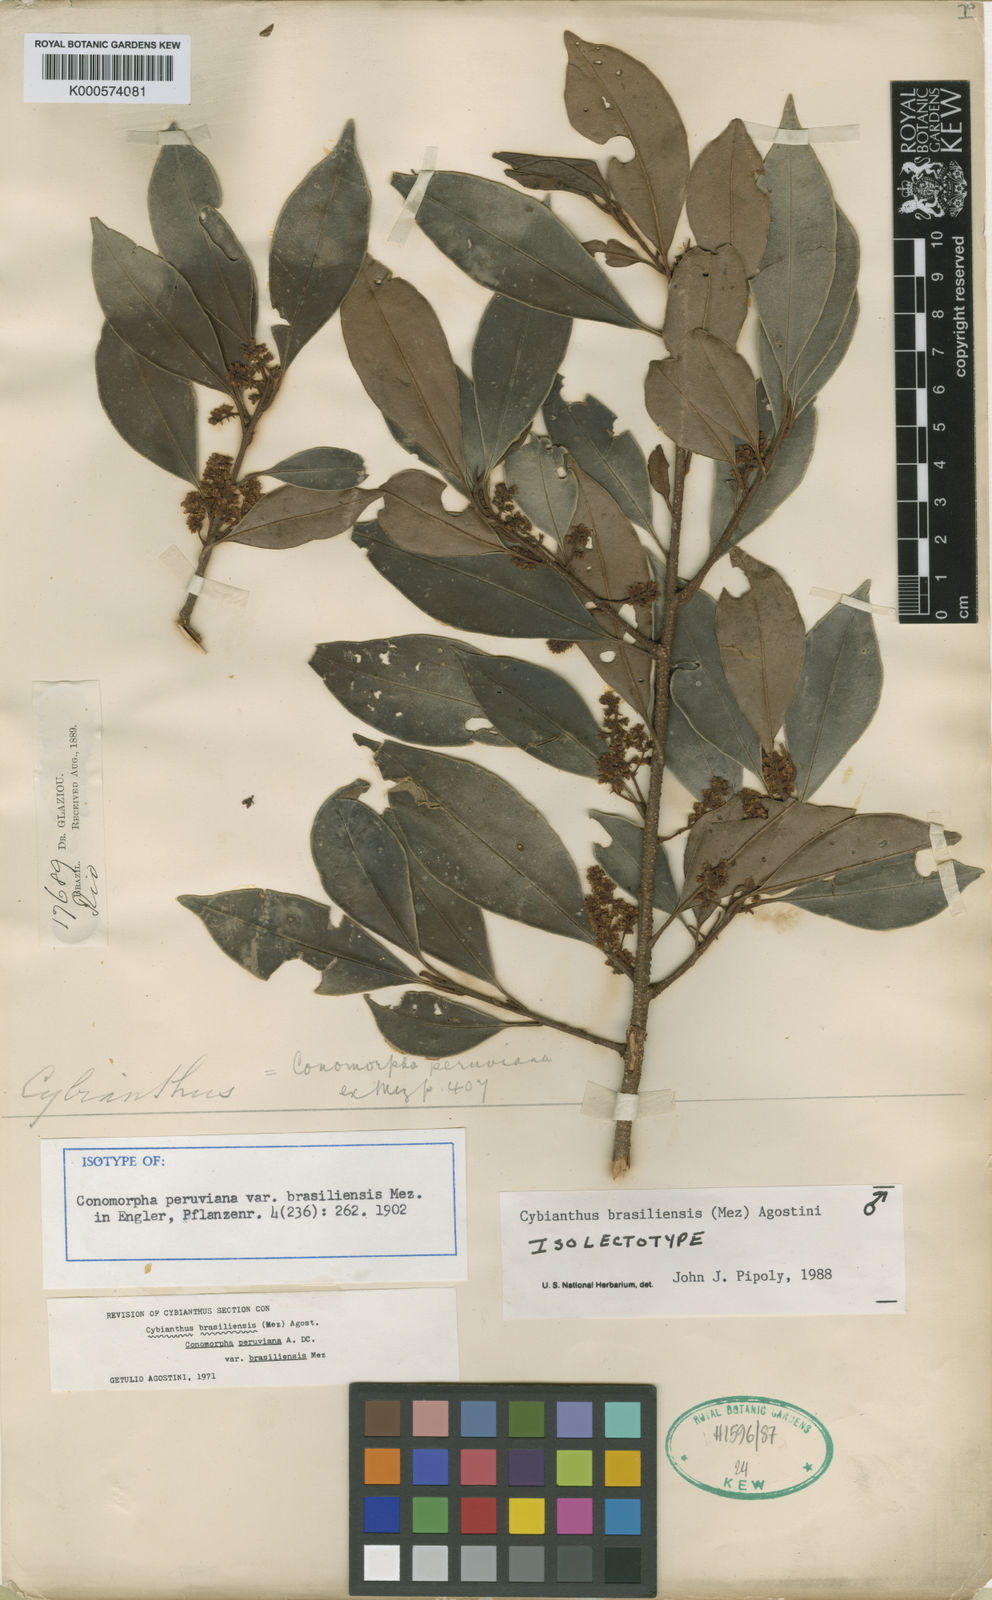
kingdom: Plantae
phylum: Tracheophyta
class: Magnoliopsida
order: Ericales
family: Primulaceae
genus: Cybianthus
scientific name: Cybianthus peruvianus
